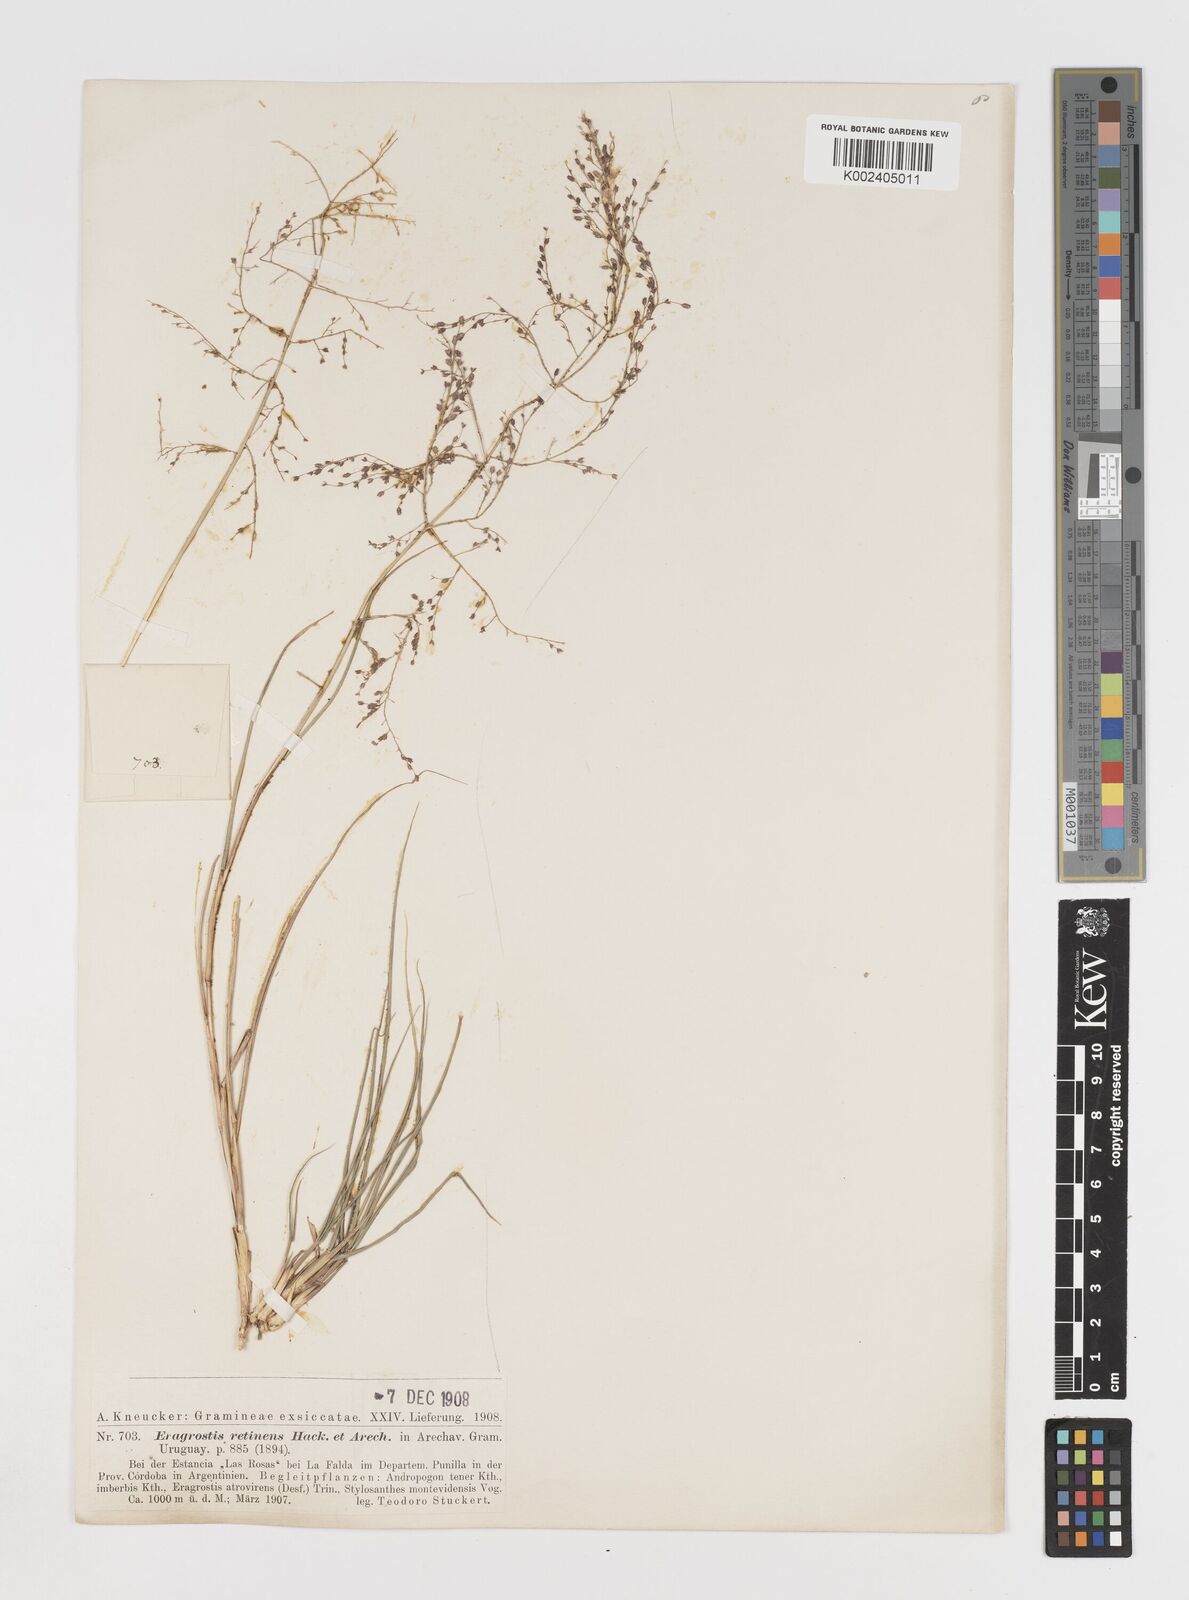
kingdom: Plantae
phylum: Tracheophyta
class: Liliopsida
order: Poales
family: Poaceae
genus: Eragrostis
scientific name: Eragrostis retinens
